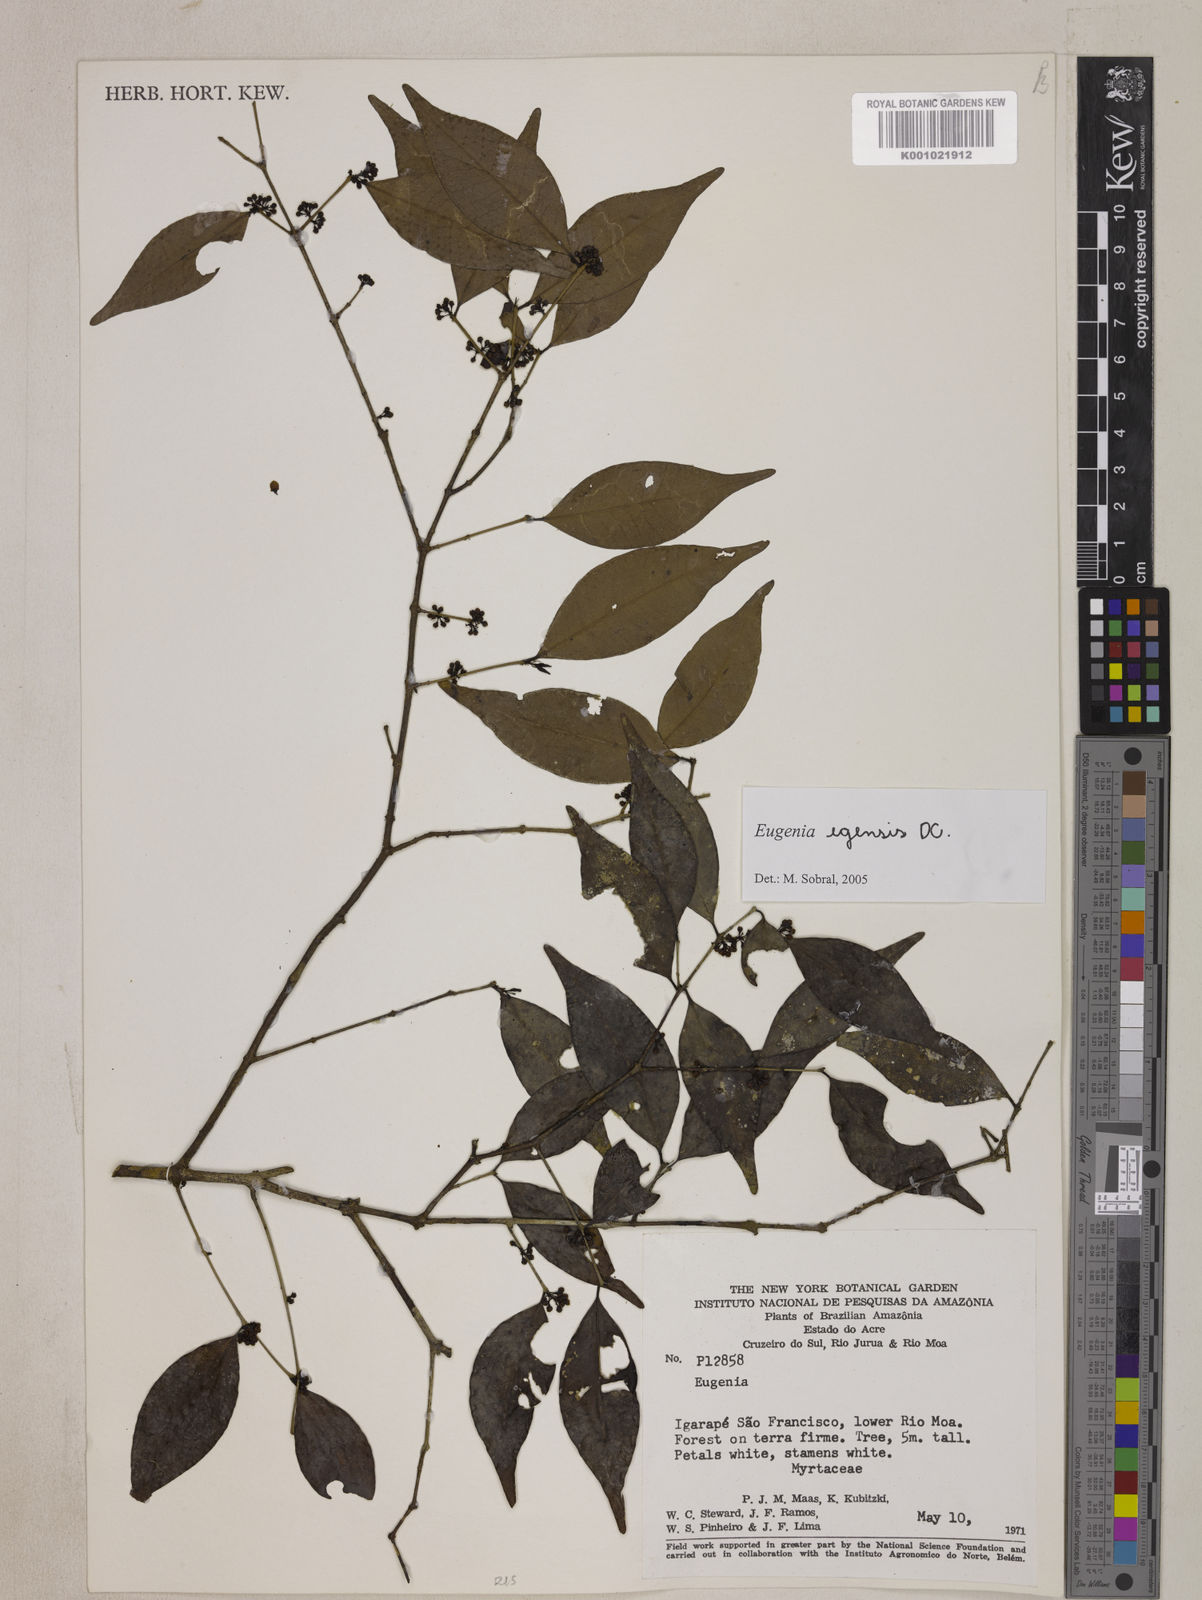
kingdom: Plantae
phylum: Tracheophyta
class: Magnoliopsida
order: Myrtales
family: Myrtaceae
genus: Eugenia
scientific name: Eugenia egensis
